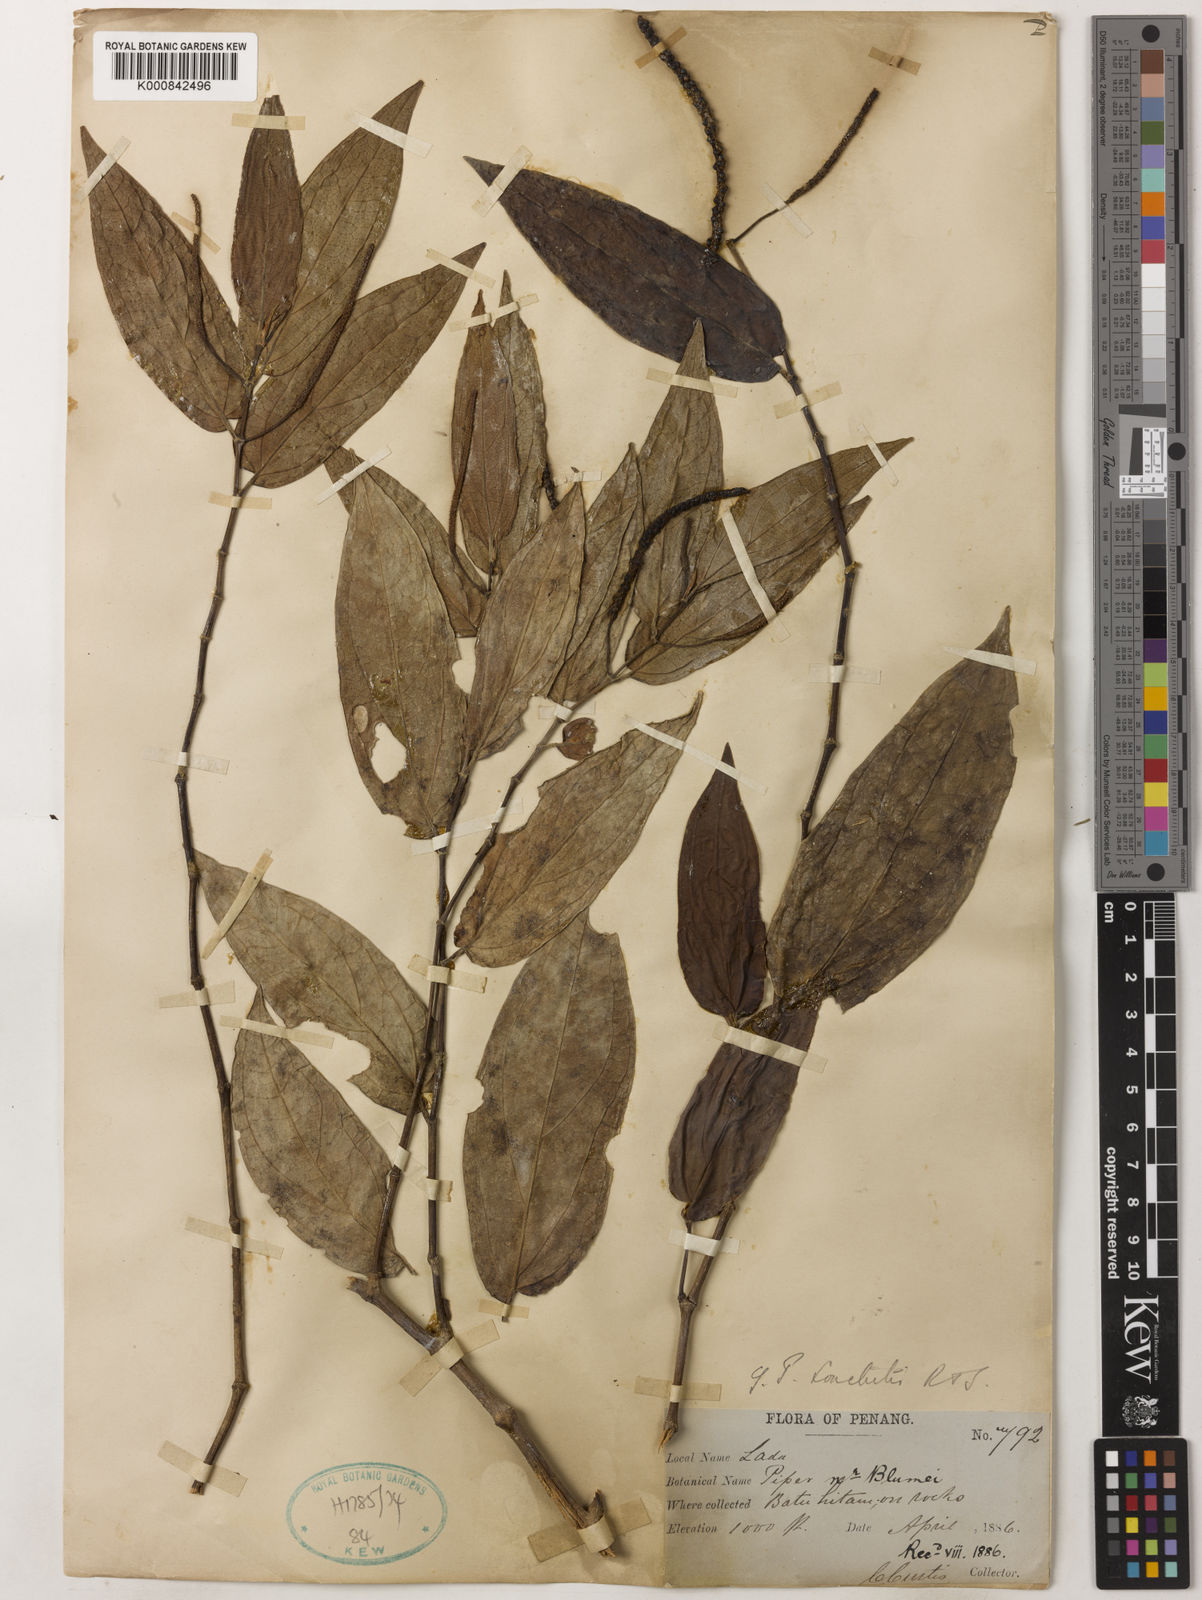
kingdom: Plantae
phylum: Tracheophyta
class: Magnoliopsida
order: Piperales
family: Piperaceae
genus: Piper
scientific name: Piper
